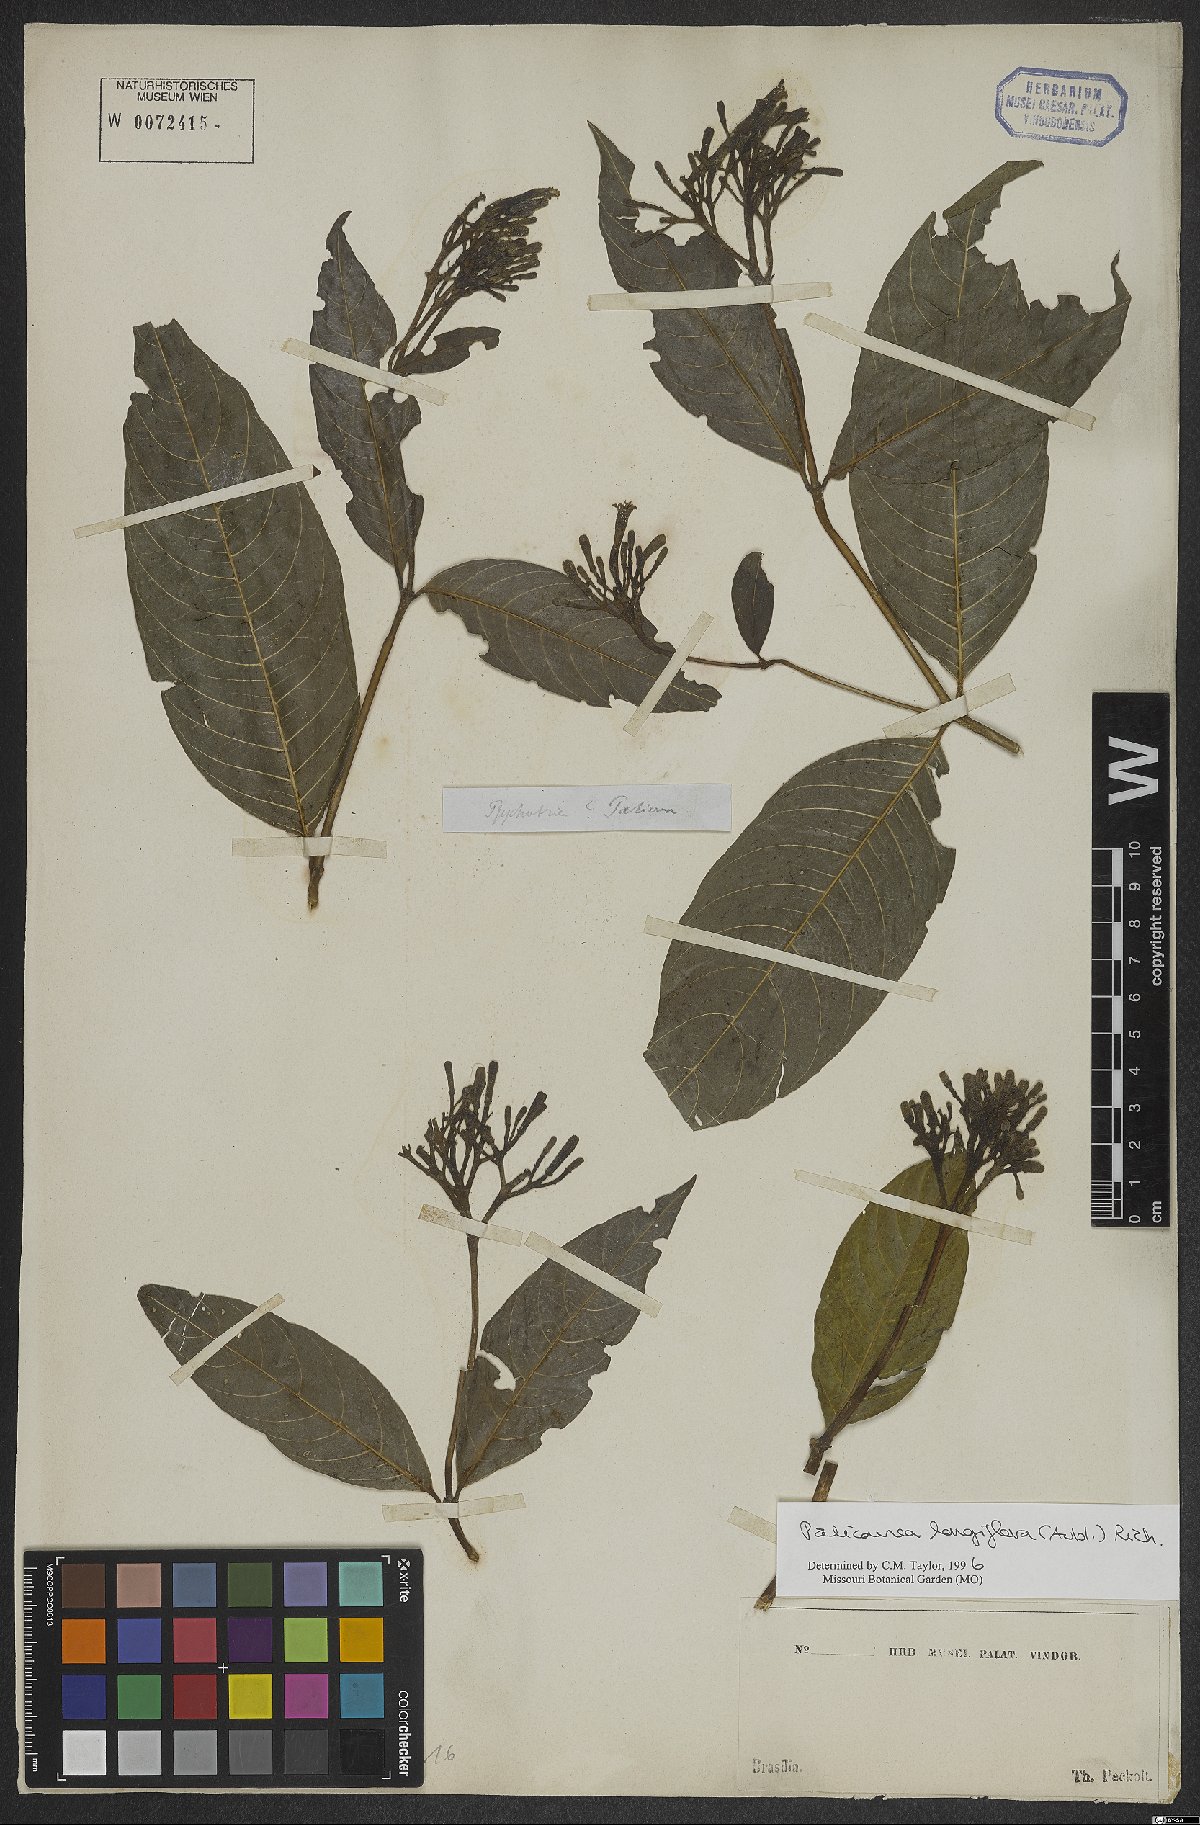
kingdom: Plantae
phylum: Tracheophyta
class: Magnoliopsida
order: Gentianales
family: Rubiaceae
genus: Palicourea
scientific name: Palicourea longiflora
